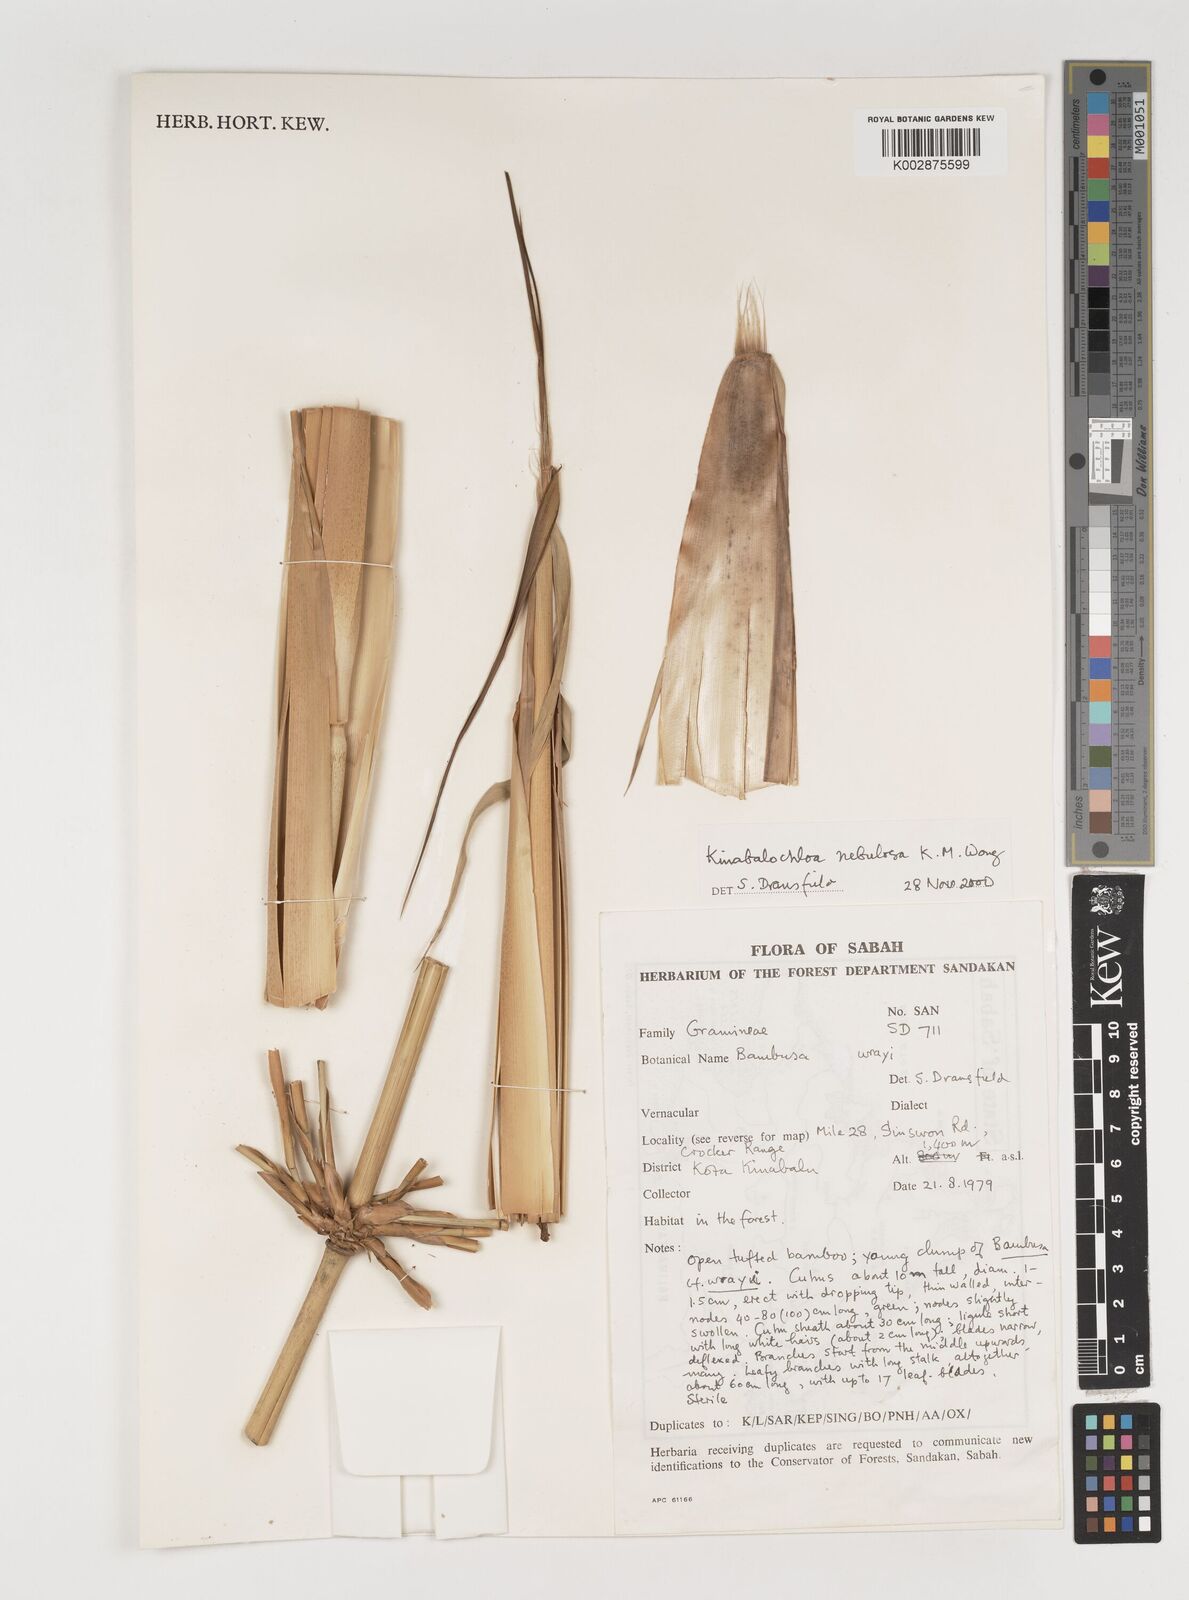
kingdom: Plantae
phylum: Tracheophyta
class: Liliopsida
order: Poales
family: Poaceae
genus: Kinabaluchloa
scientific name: Kinabaluchloa nebulosa
